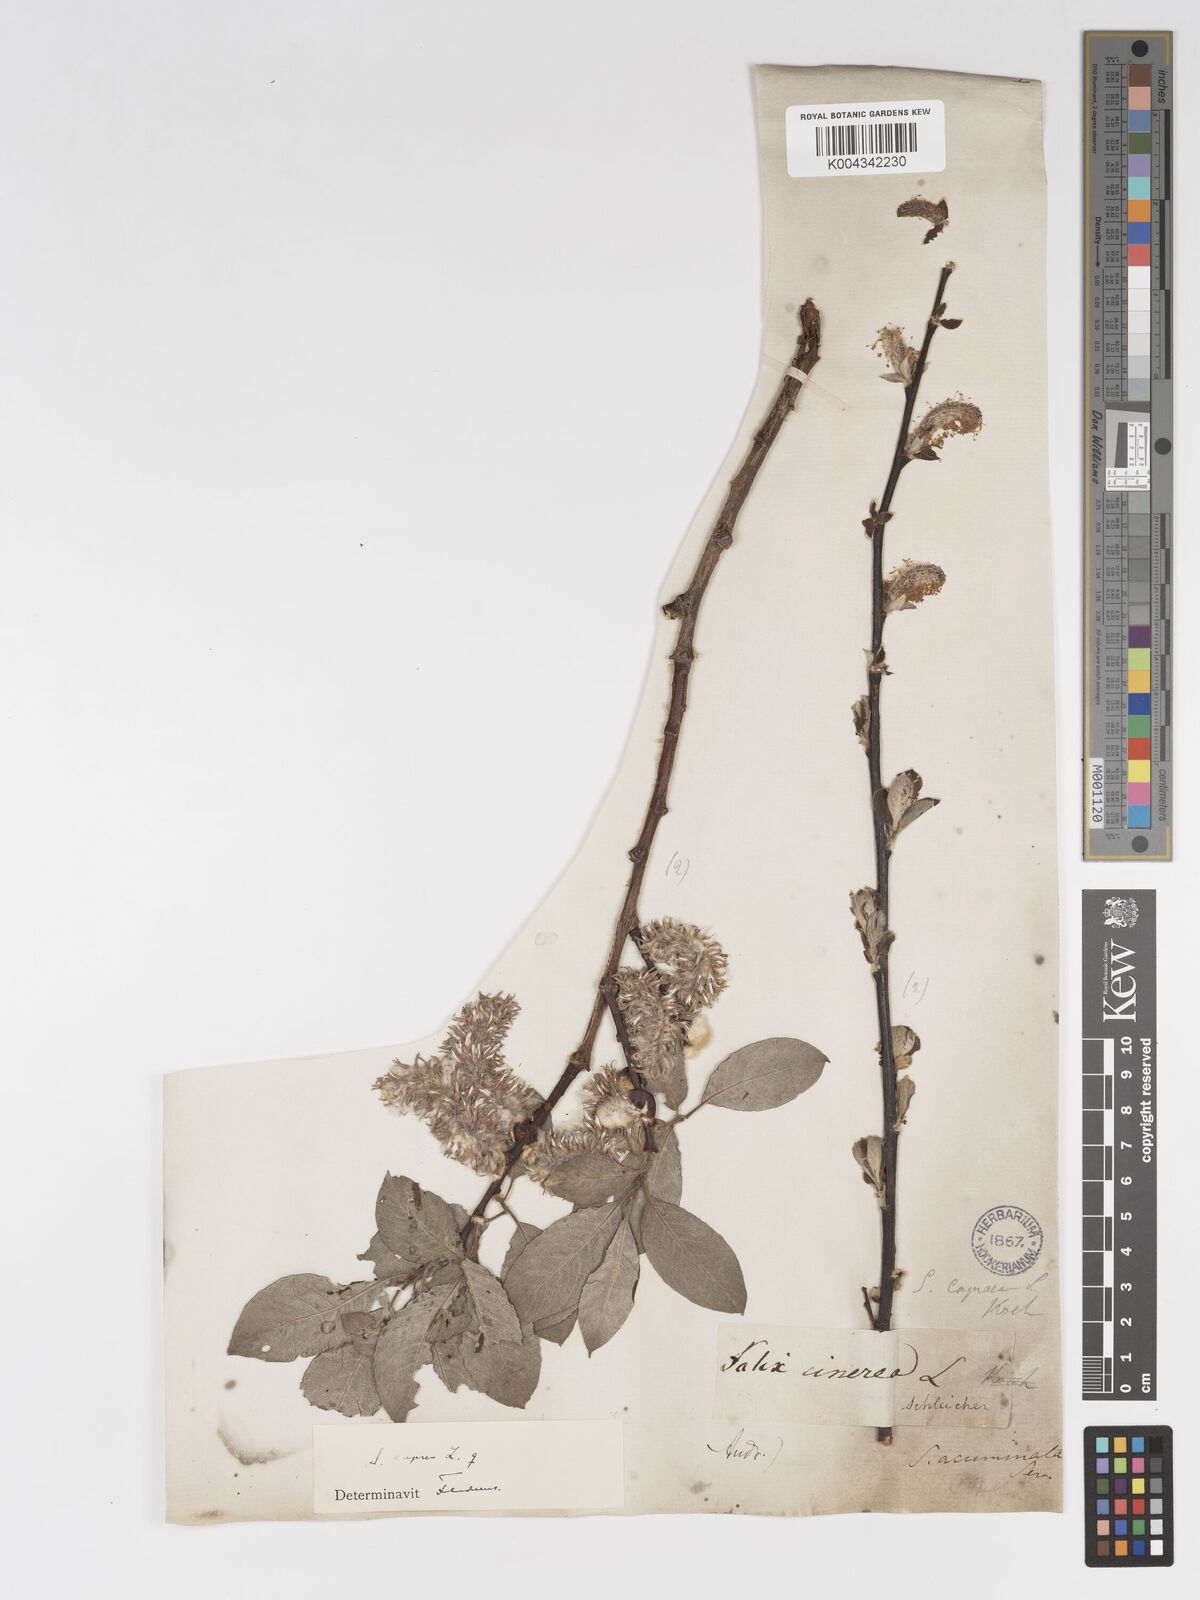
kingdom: Plantae
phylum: Tracheophyta
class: Magnoliopsida
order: Malpighiales
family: Salicaceae
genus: Salix
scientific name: Salix
